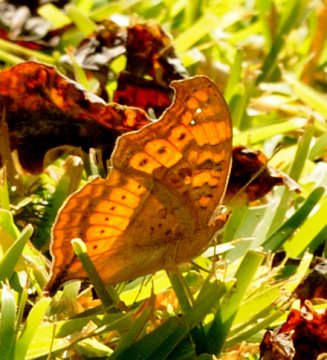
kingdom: Animalia
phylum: Arthropoda
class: Insecta
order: Lepidoptera
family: Nymphalidae
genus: Junonia
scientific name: Junonia antilope
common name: Darker Commodore
